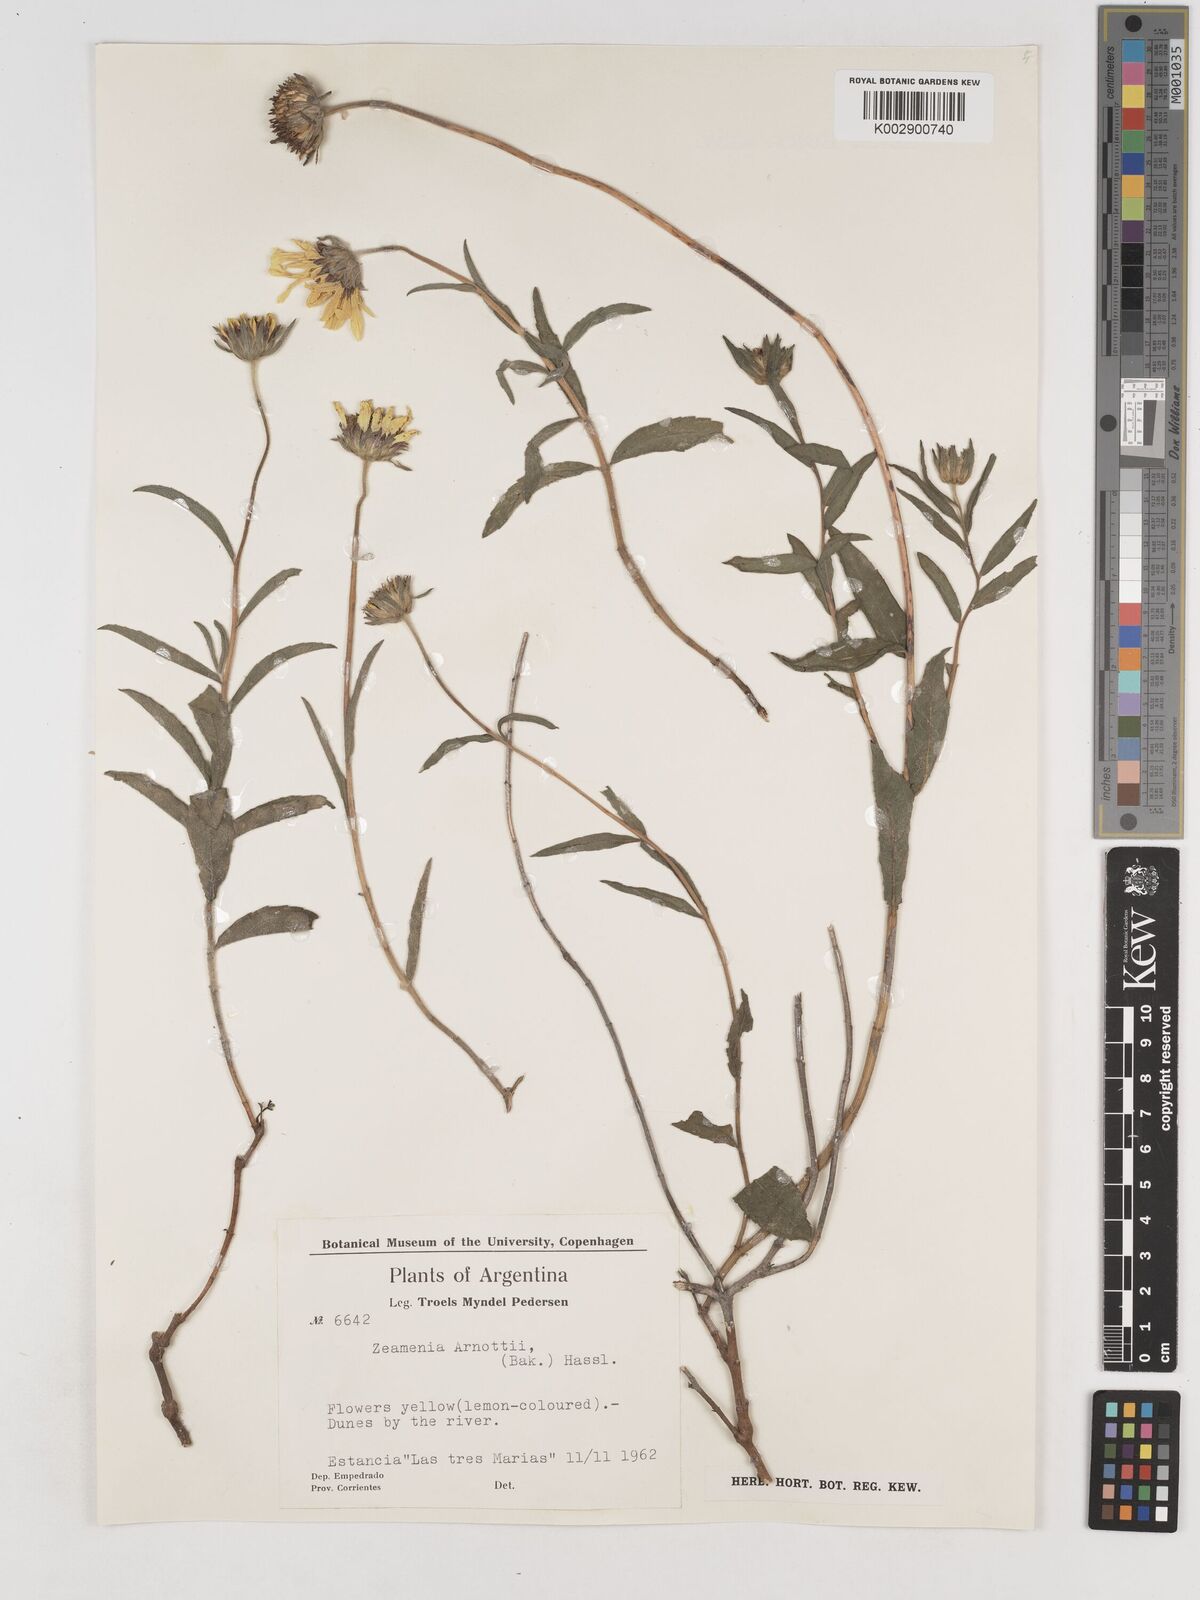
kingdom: Plantae
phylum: Tracheophyta
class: Magnoliopsida
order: Asterales
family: Asteraceae
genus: Dimerostemma
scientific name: Dimerostemma arnottii
